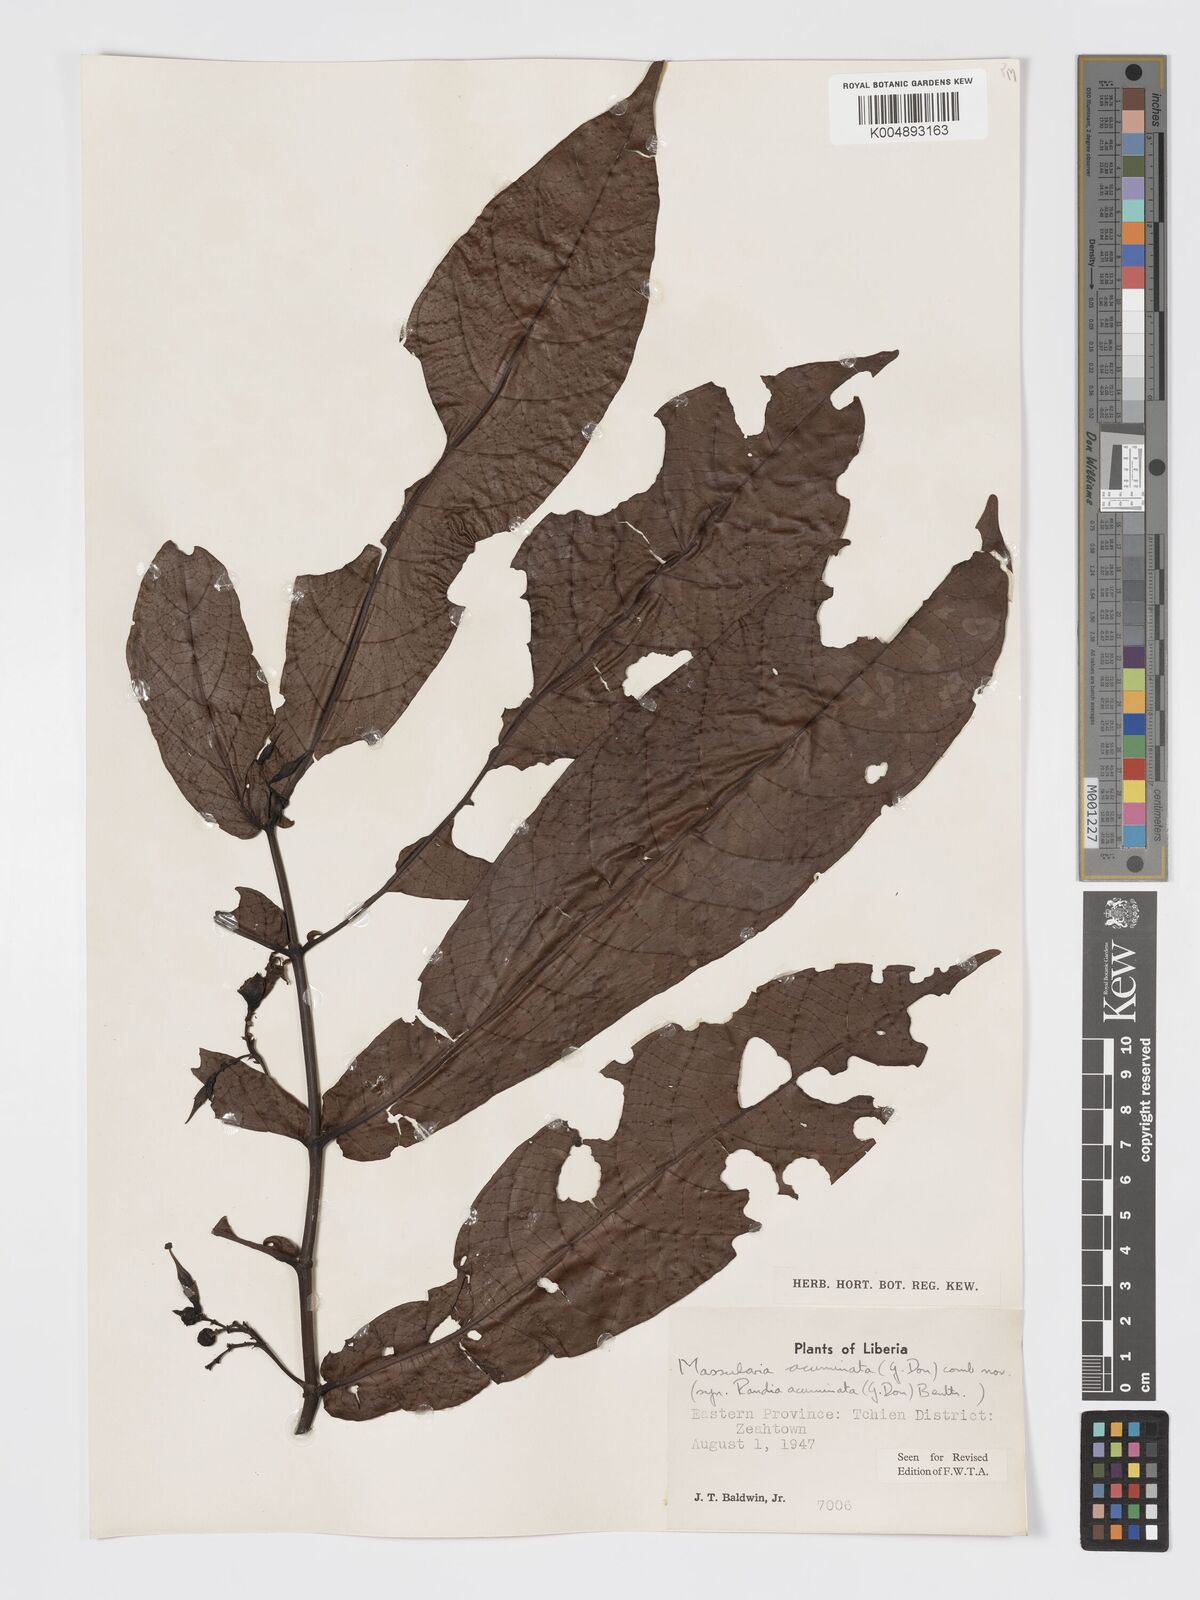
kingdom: Plantae
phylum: Tracheophyta
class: Magnoliopsida
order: Gentianales
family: Rubiaceae
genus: Massularia
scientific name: Massularia acuminata
